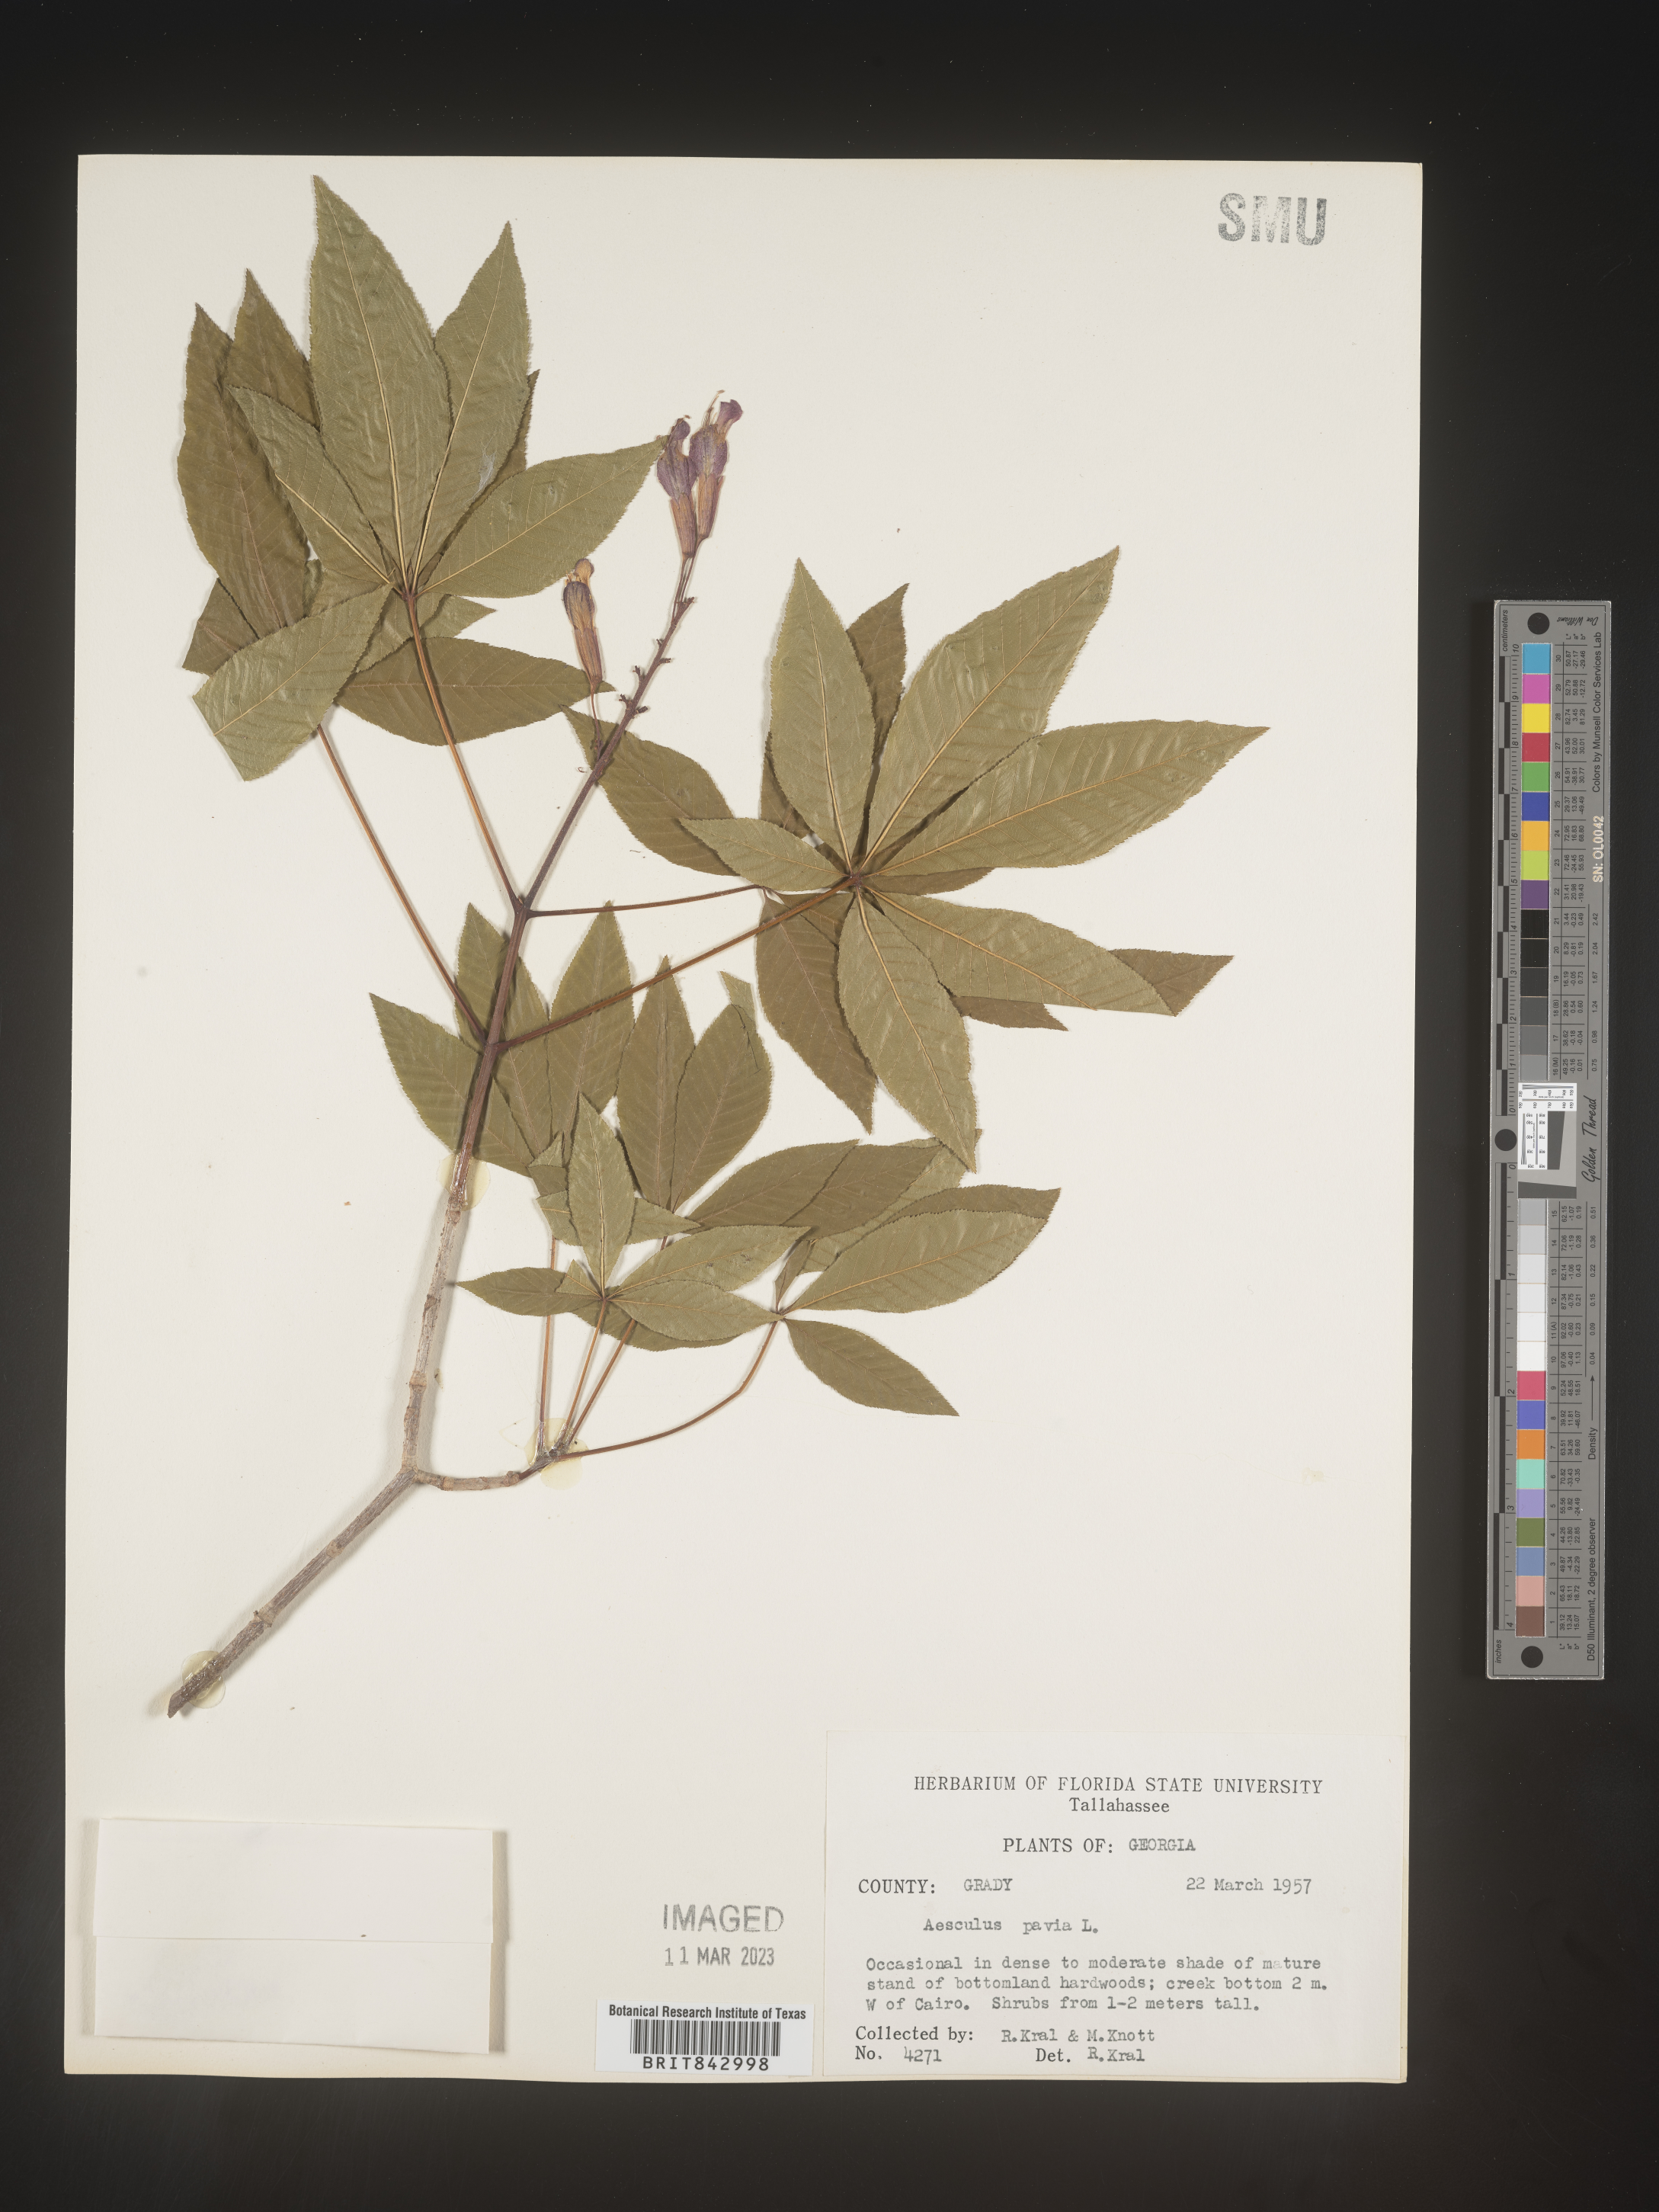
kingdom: Plantae
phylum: Tracheophyta
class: Magnoliopsida
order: Sapindales
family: Sapindaceae
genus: Aesculus
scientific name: Aesculus pavia
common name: Red buckeye
